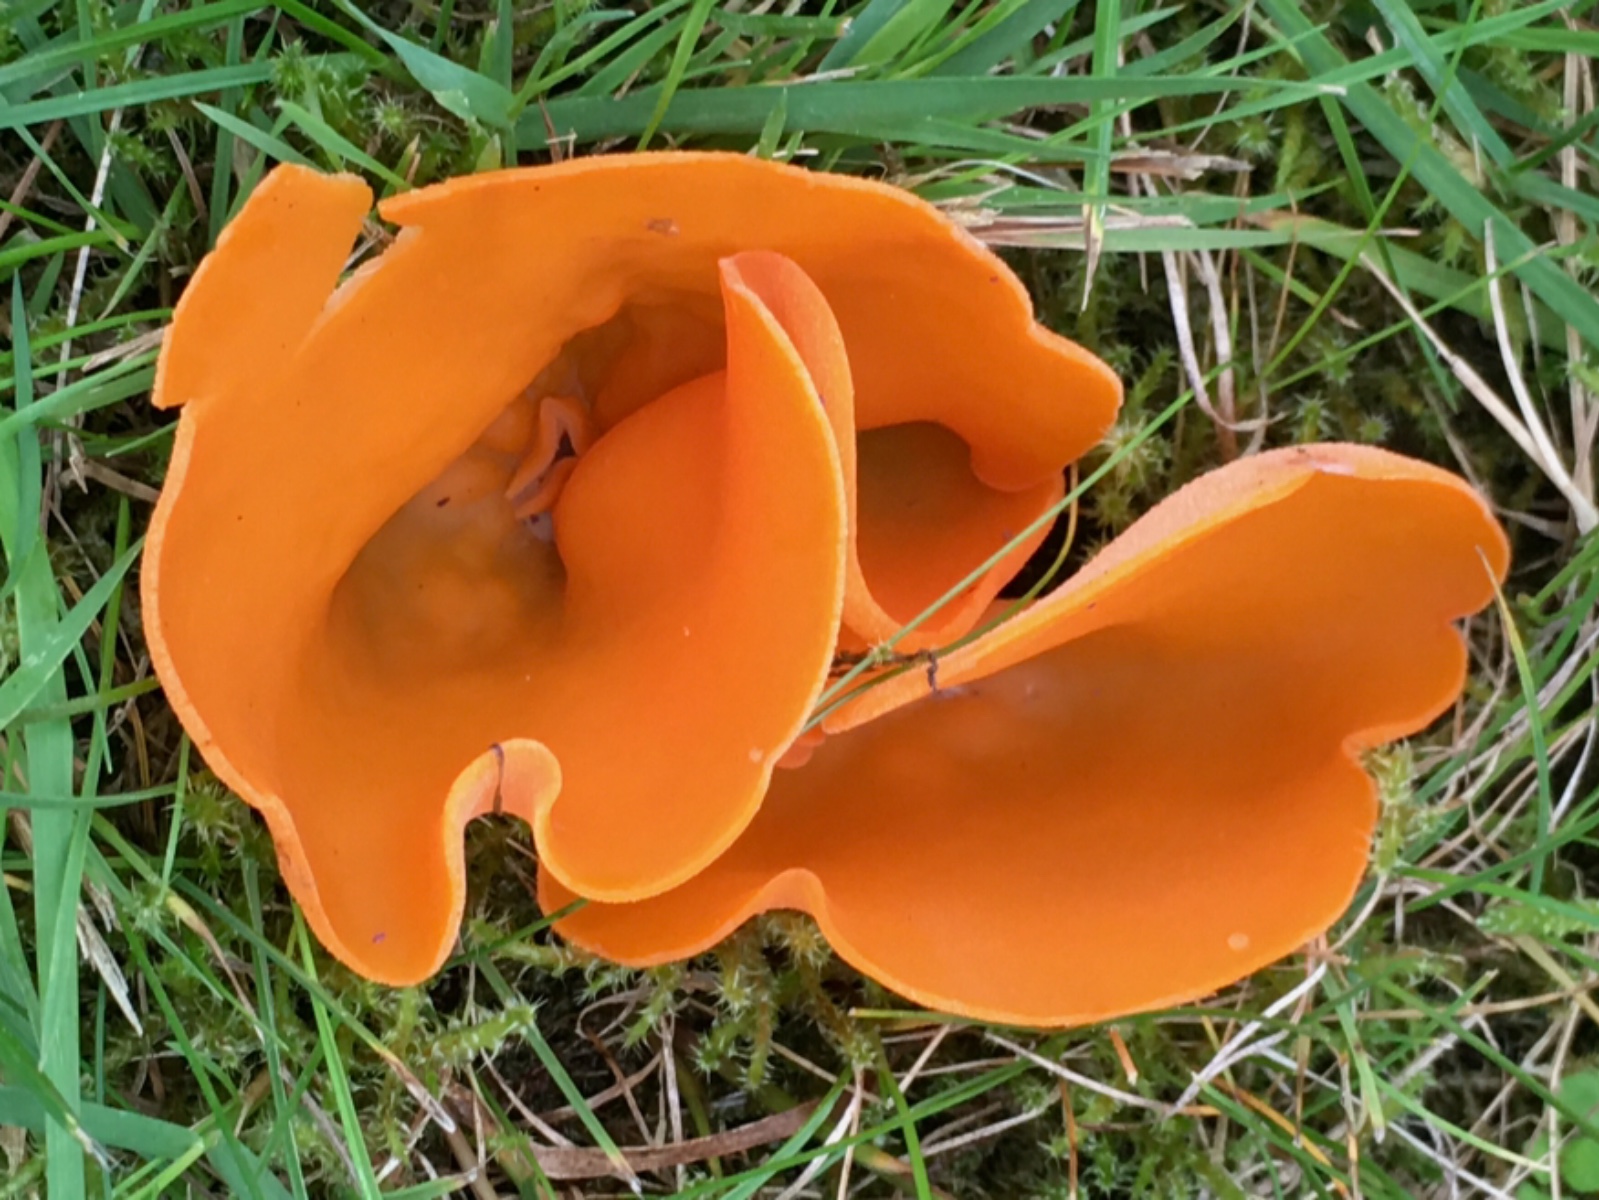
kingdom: Fungi
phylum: Ascomycota
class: Pezizomycetes
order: Pezizales
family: Pyronemataceae
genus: Aleuria
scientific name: Aleuria aurantia
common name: almindelig orangebæger
